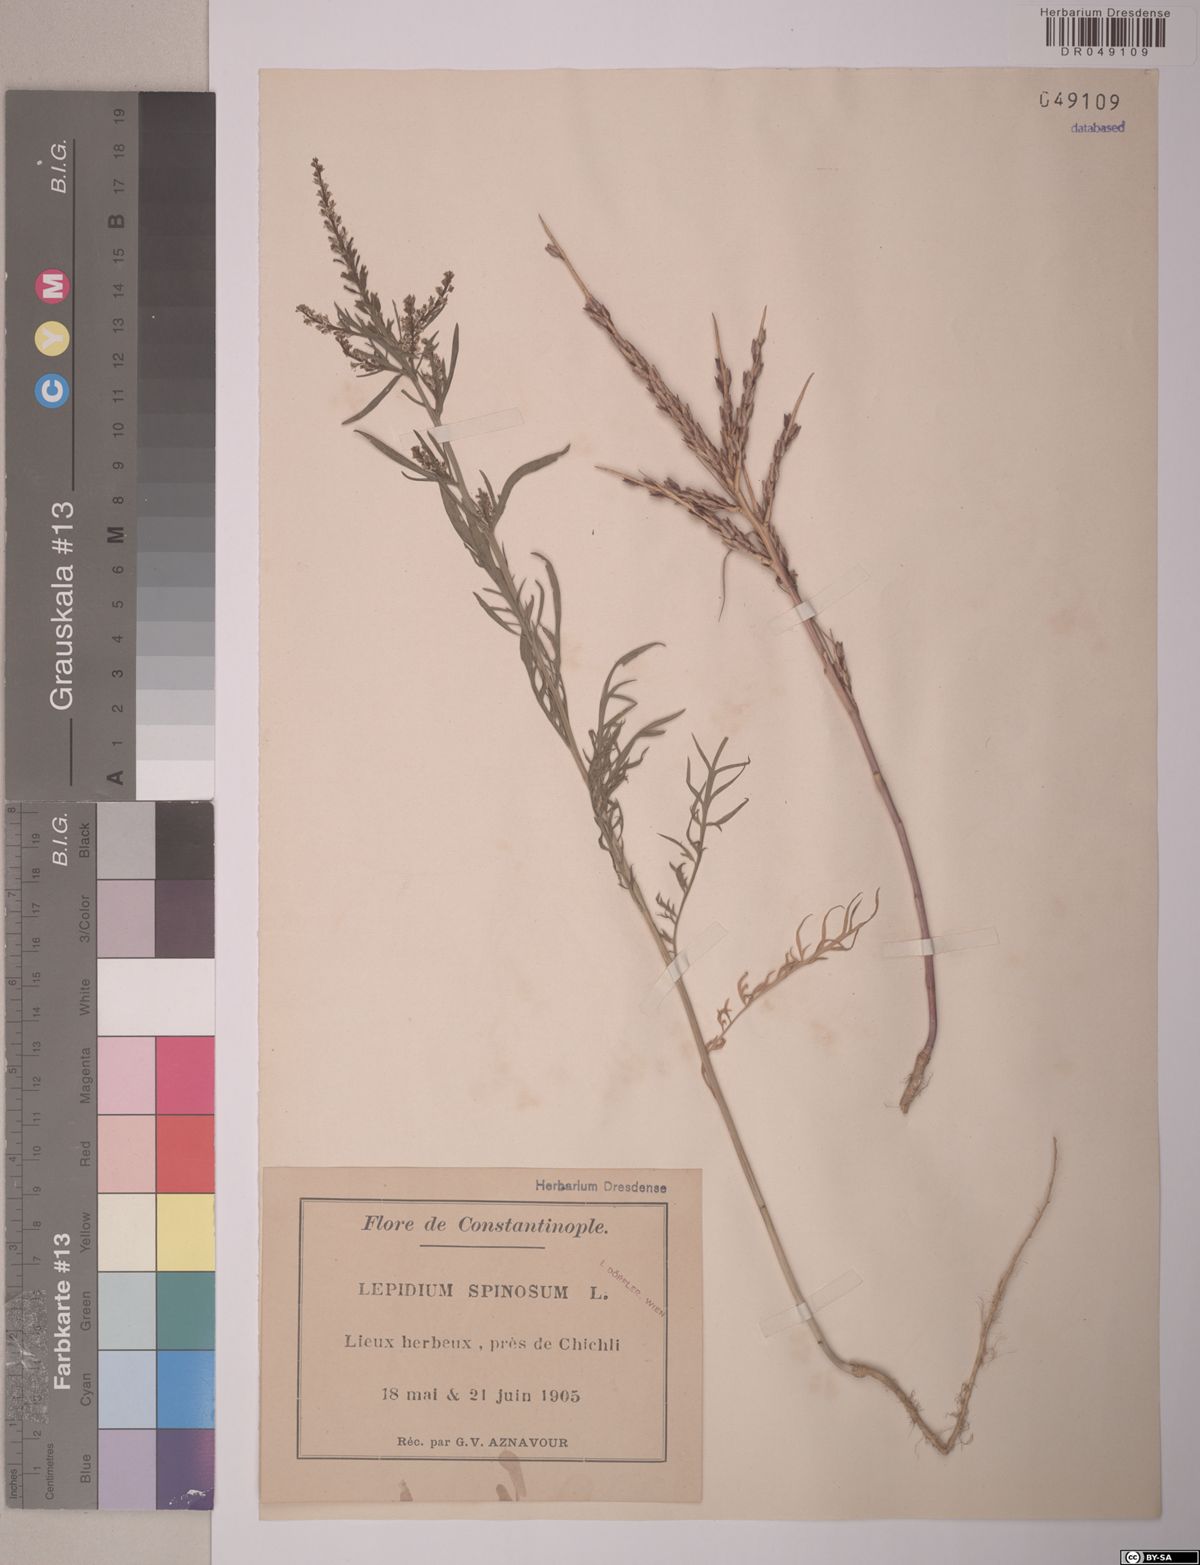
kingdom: Plantae
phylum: Tracheophyta
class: Magnoliopsida
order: Brassicales
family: Brassicaceae
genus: Lepidium
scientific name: Lepidium spinosum
